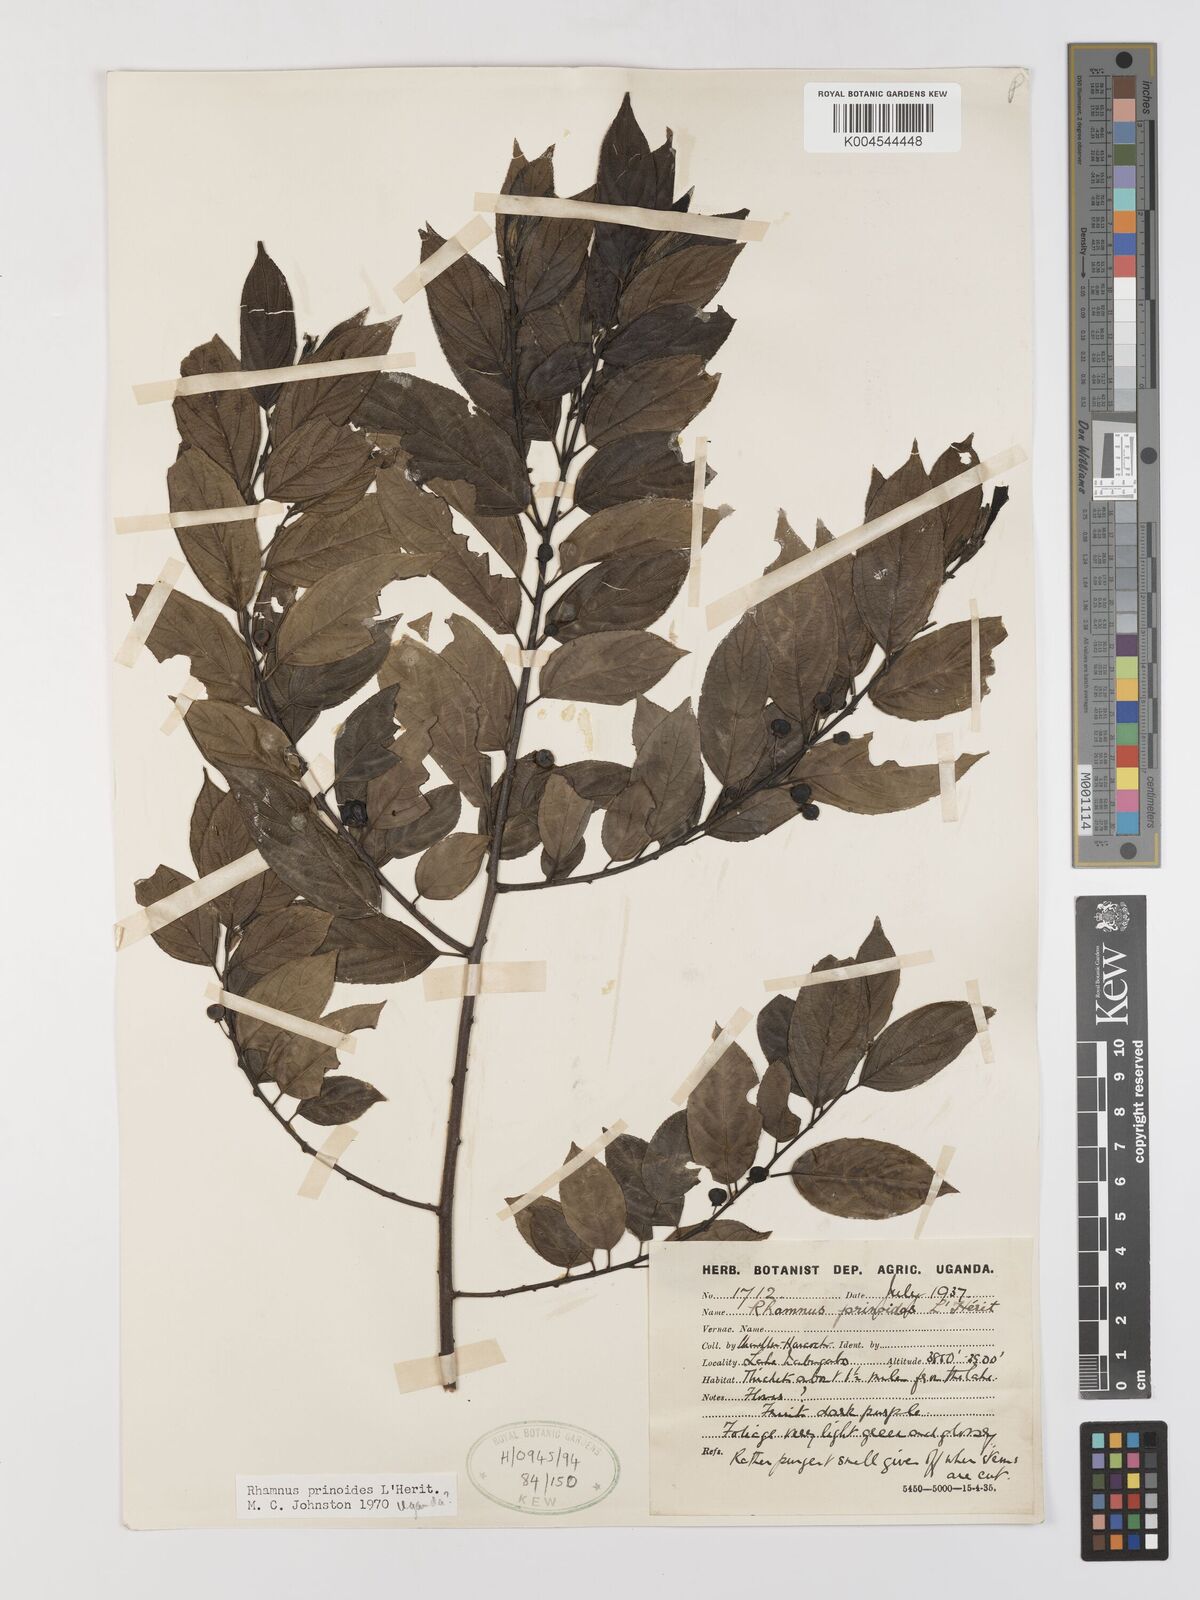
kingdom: Plantae
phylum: Tracheophyta
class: Magnoliopsida
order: Rosales
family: Rhamnaceae
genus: Rhamnus
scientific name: Rhamnus prinoides
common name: Dogwood
